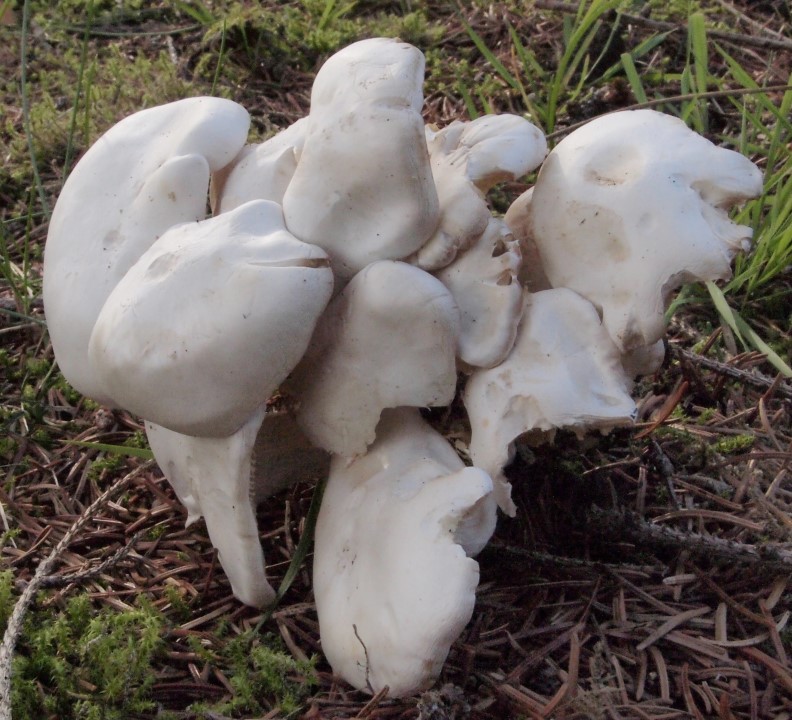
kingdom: Fungi
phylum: Basidiomycota
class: Agaricomycetes
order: Agaricales
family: Tricholomataceae
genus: Leucocybe
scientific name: Leucocybe connata
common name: knippe-tragthat
